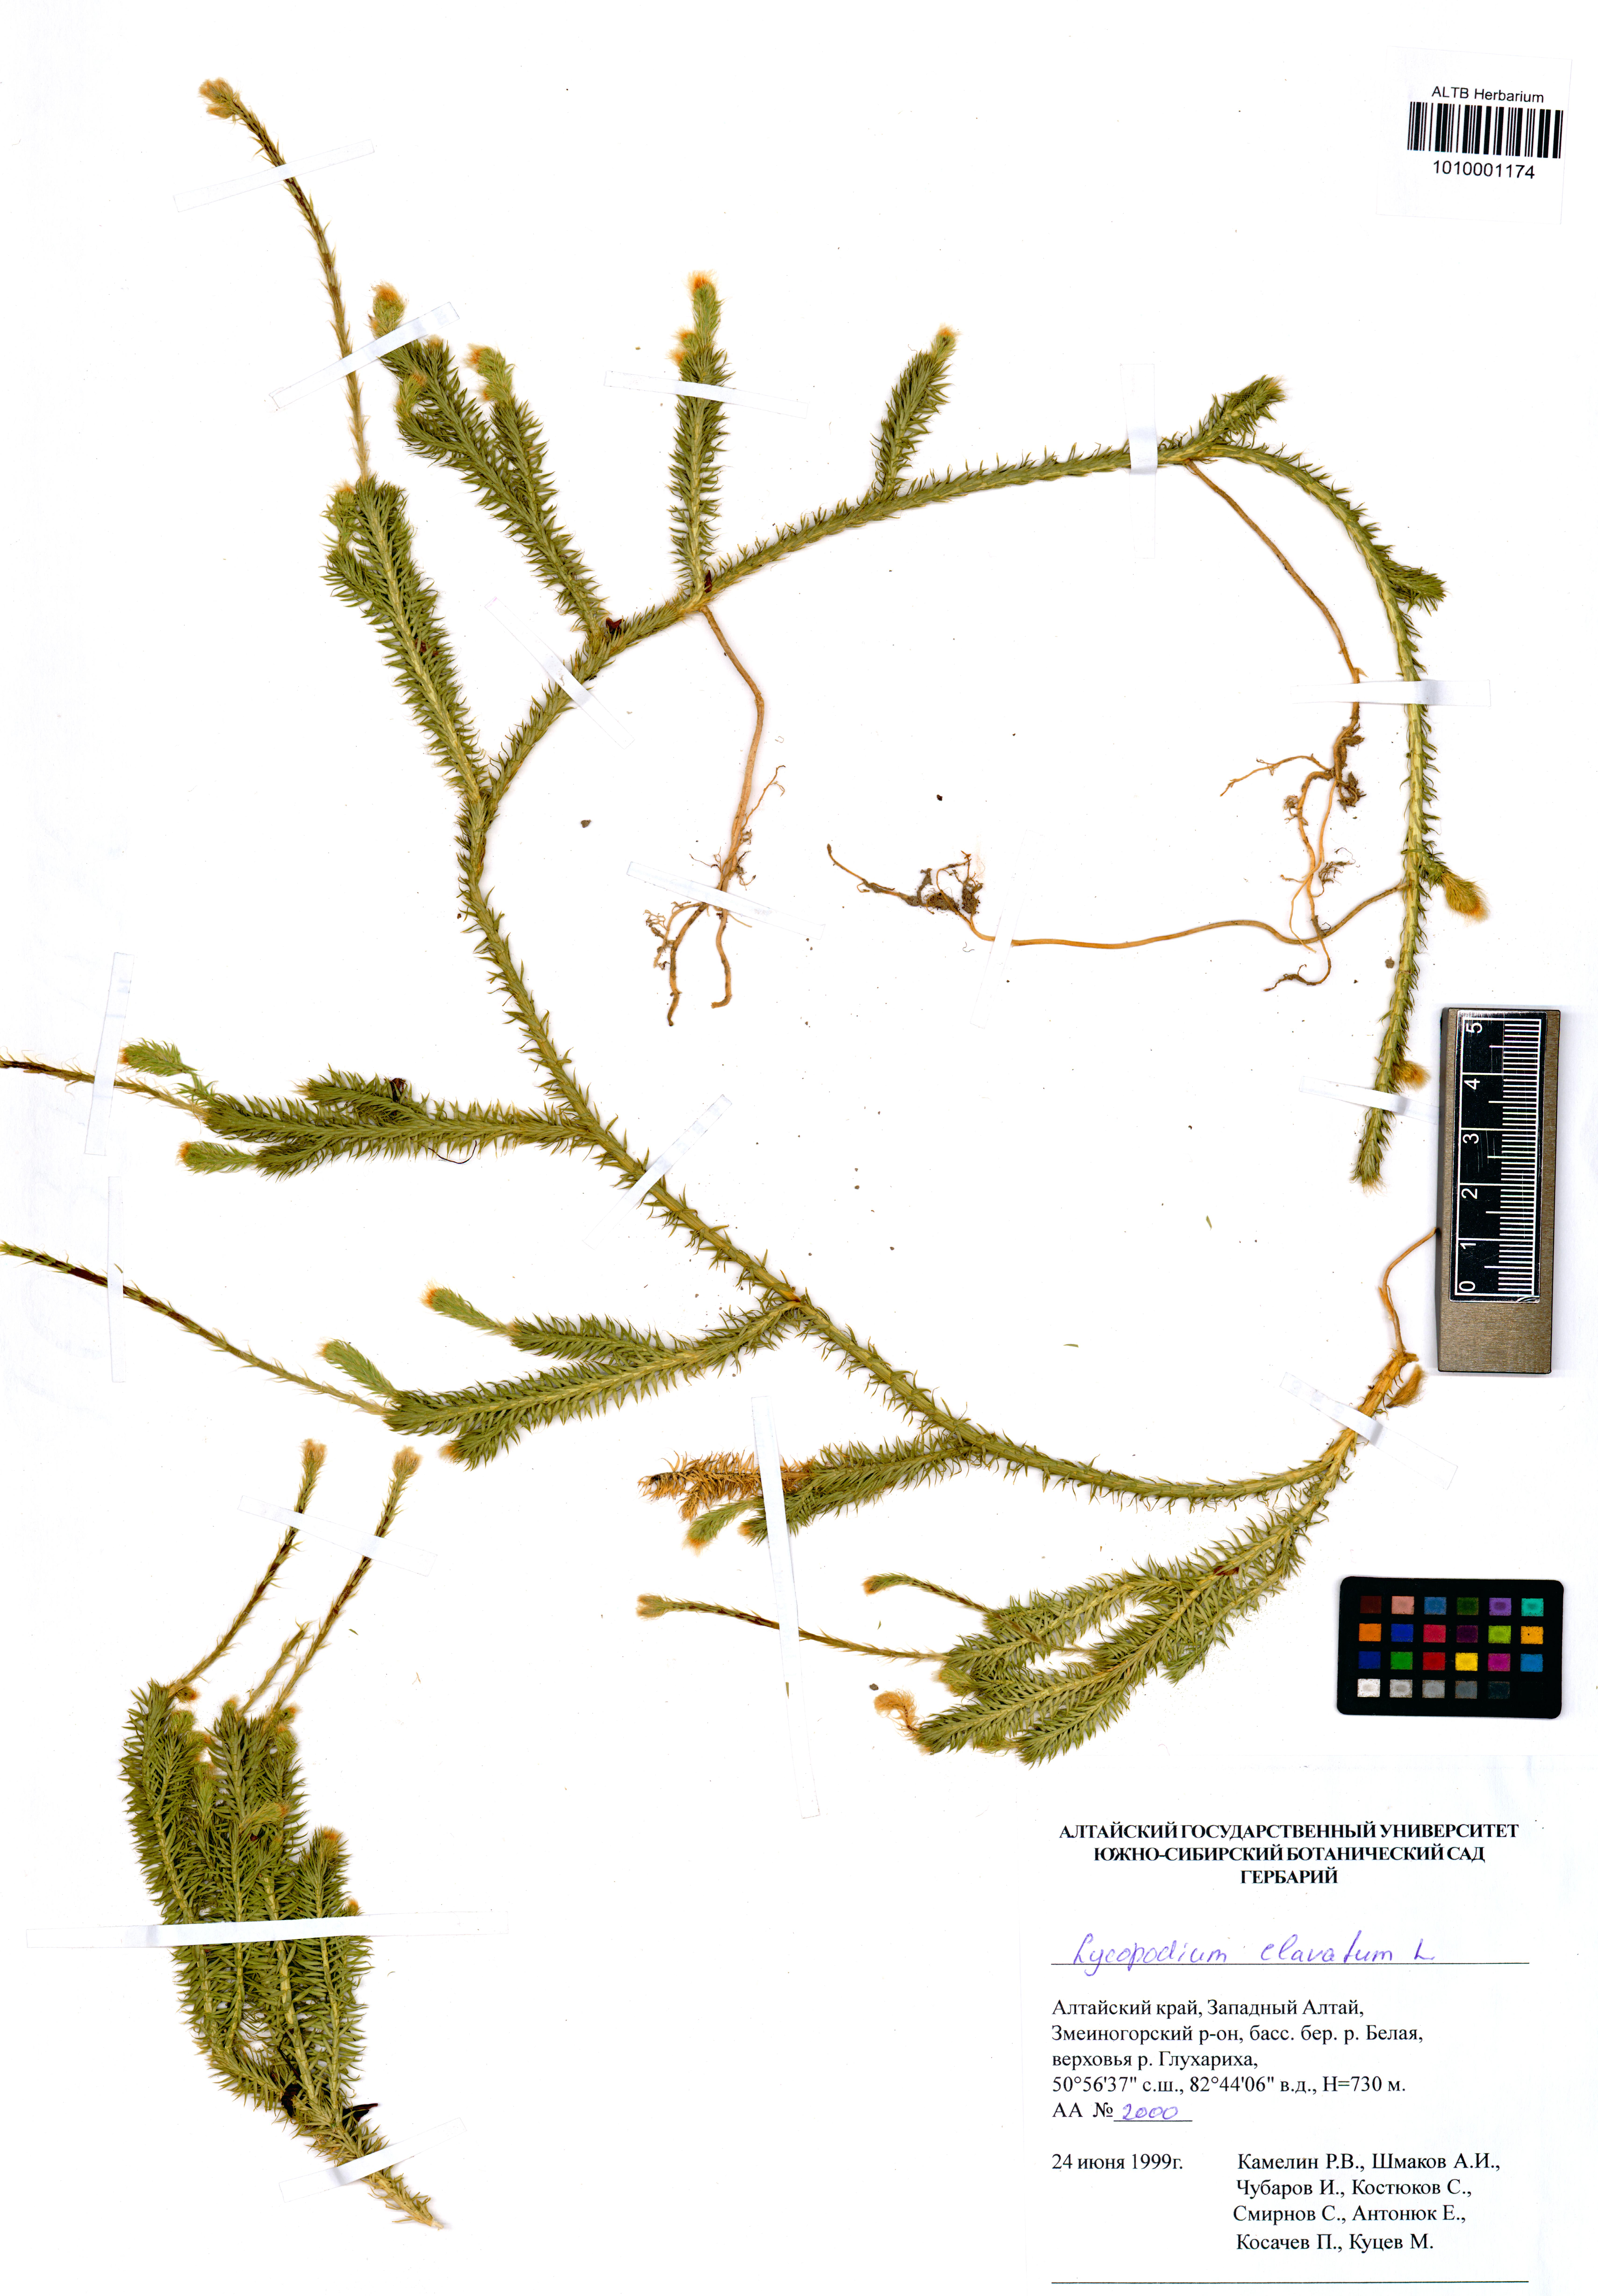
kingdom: Plantae
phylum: Tracheophyta
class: Lycopodiopsida
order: Lycopodiales
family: Lycopodiaceae
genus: Lycopodium
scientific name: Lycopodium clavatum
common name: Stag's-horn clubmoss
